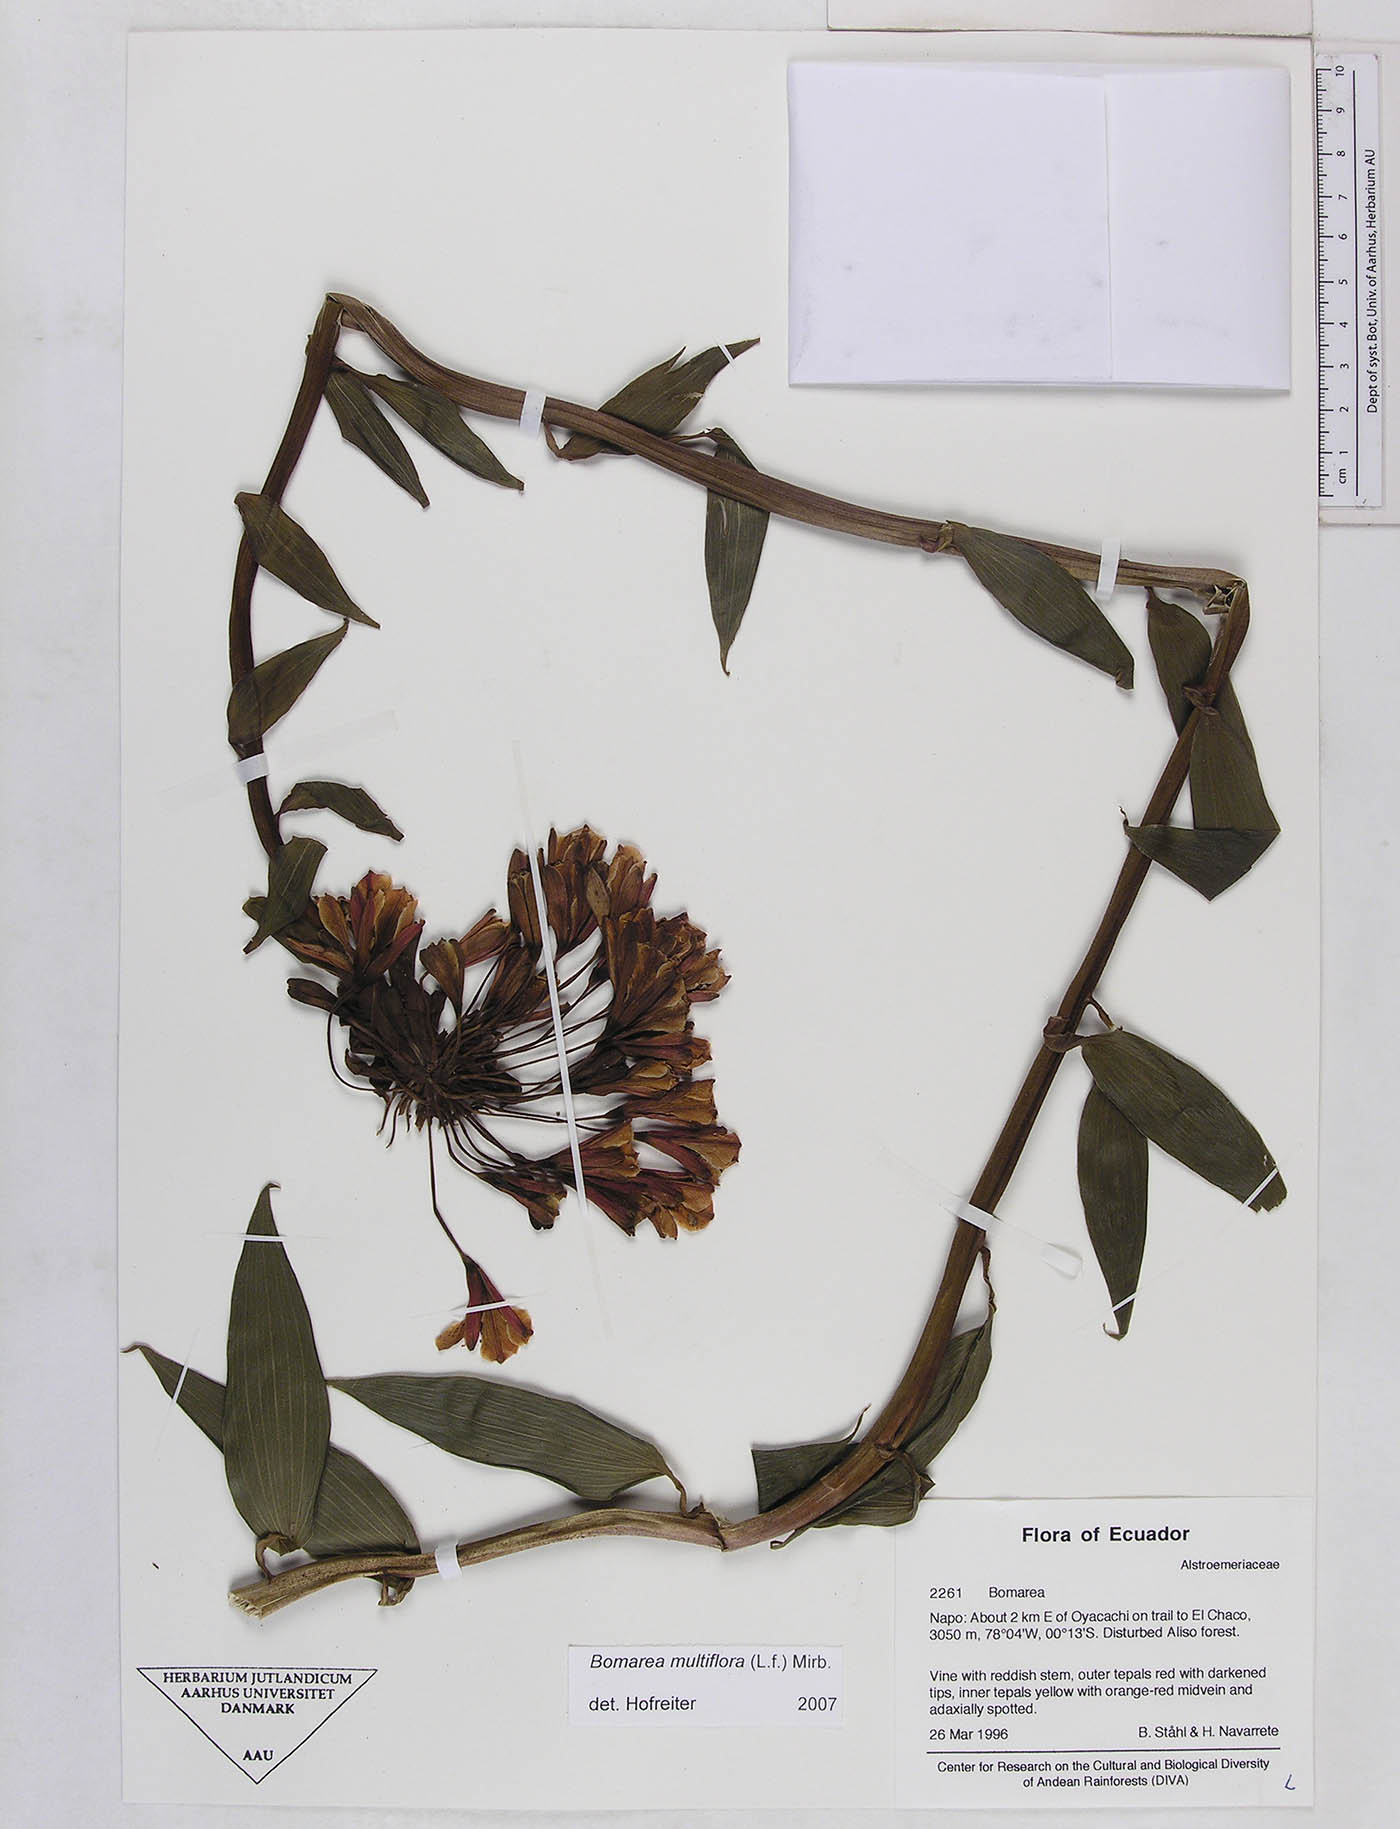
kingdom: Plantae
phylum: Tracheophyta
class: Liliopsida
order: Liliales
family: Alstroemeriaceae
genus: Bomarea
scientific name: Bomarea multiflora
